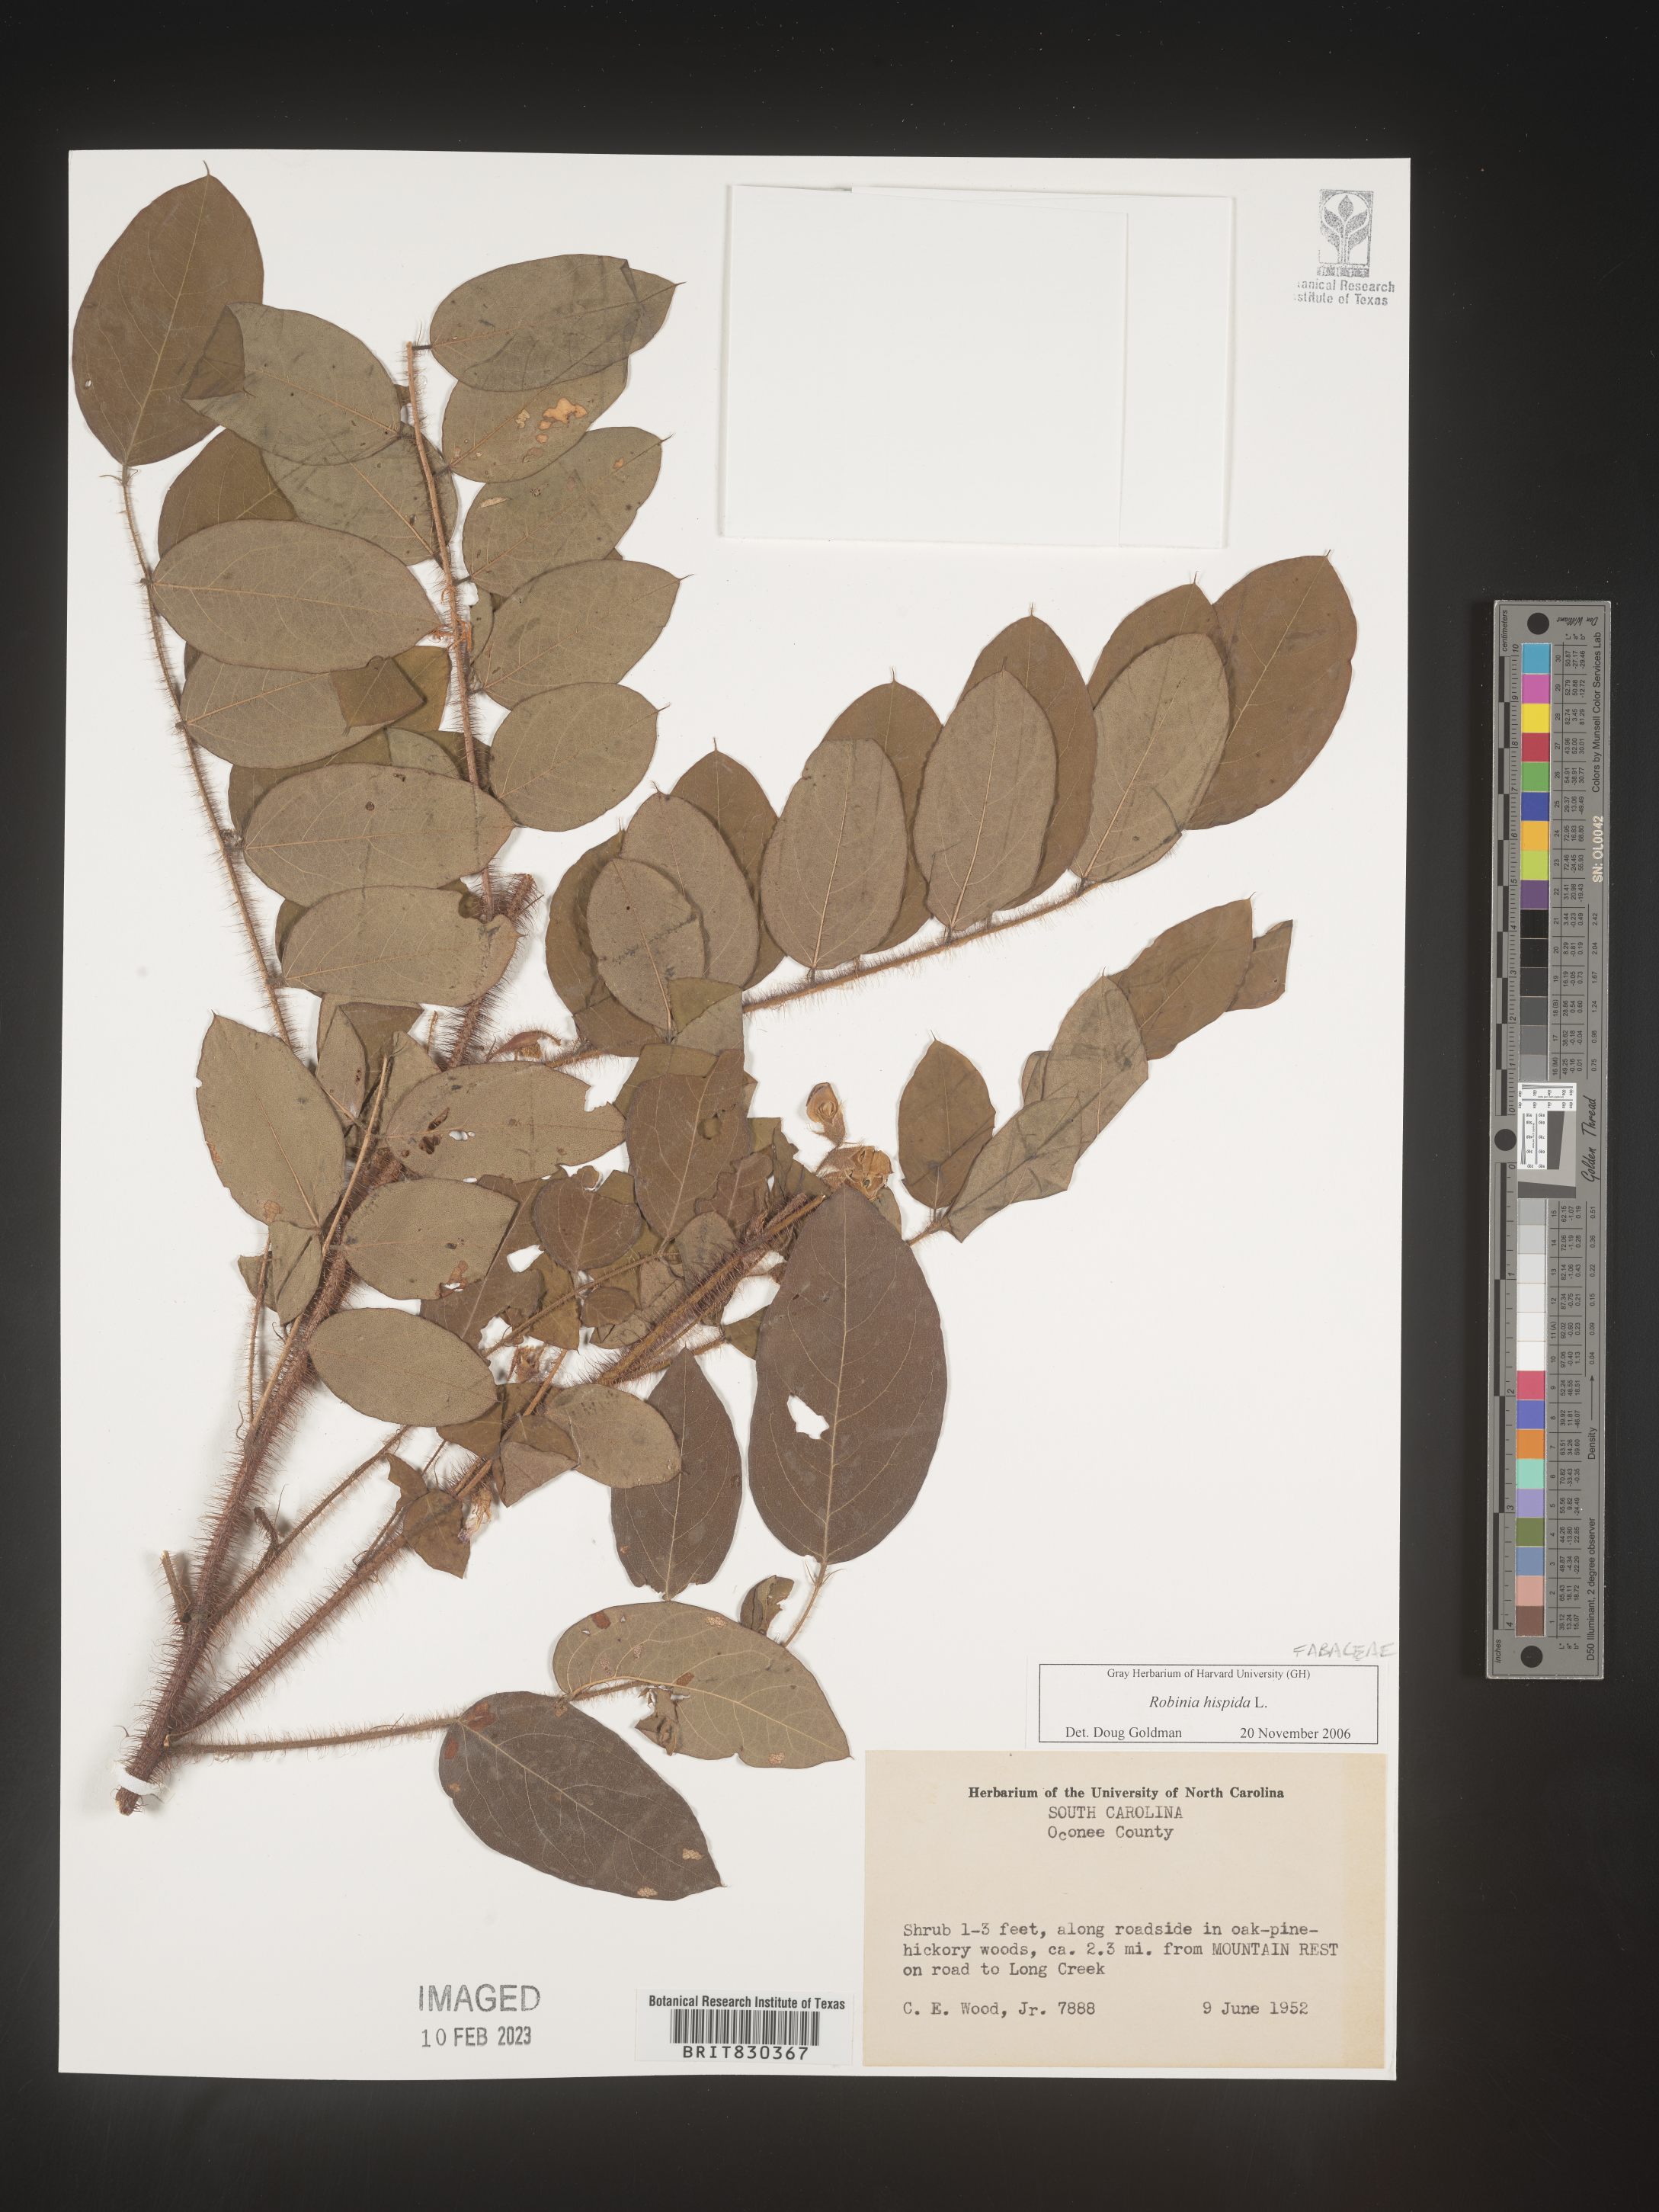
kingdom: Plantae
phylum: Tracheophyta
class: Magnoliopsida
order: Fabales
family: Fabaceae
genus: Robinia
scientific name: Robinia hispida
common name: Bristly locust
